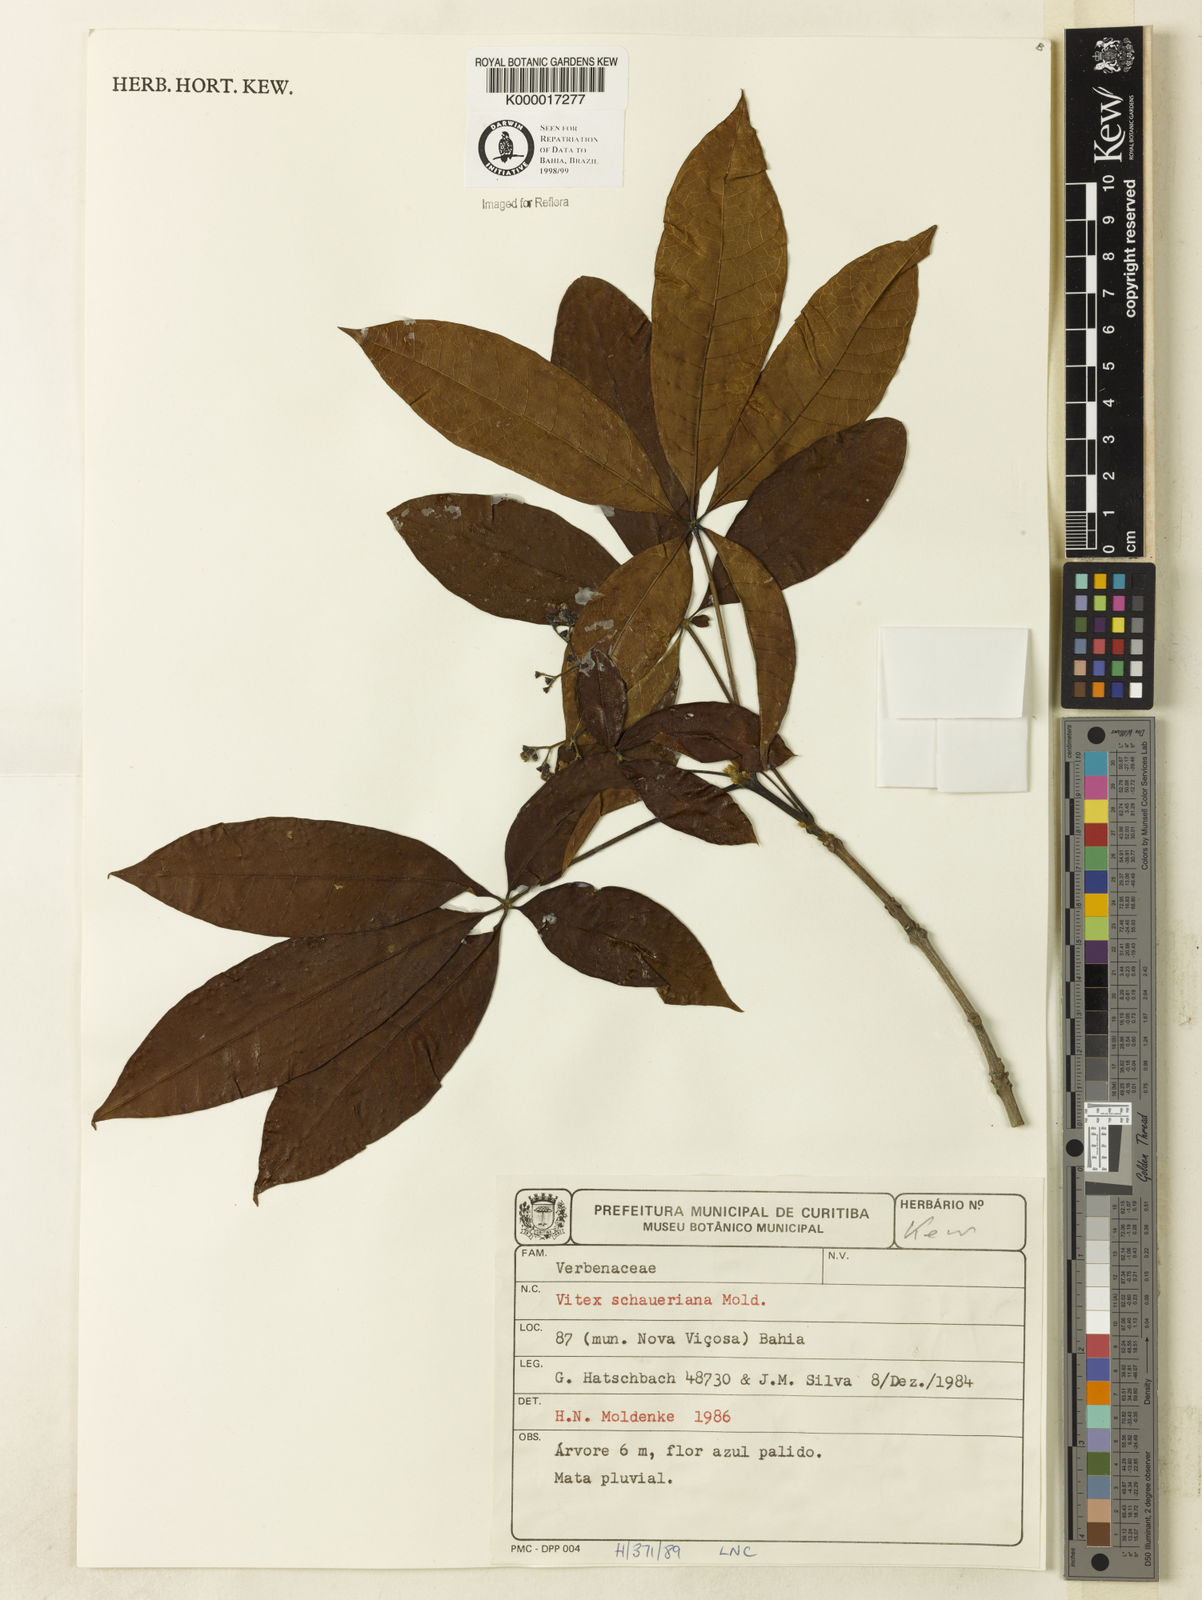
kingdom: Plantae
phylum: Tracheophyta
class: Magnoliopsida
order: Lamiales
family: Lamiaceae
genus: Vitex
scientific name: Vitex schaueriana
